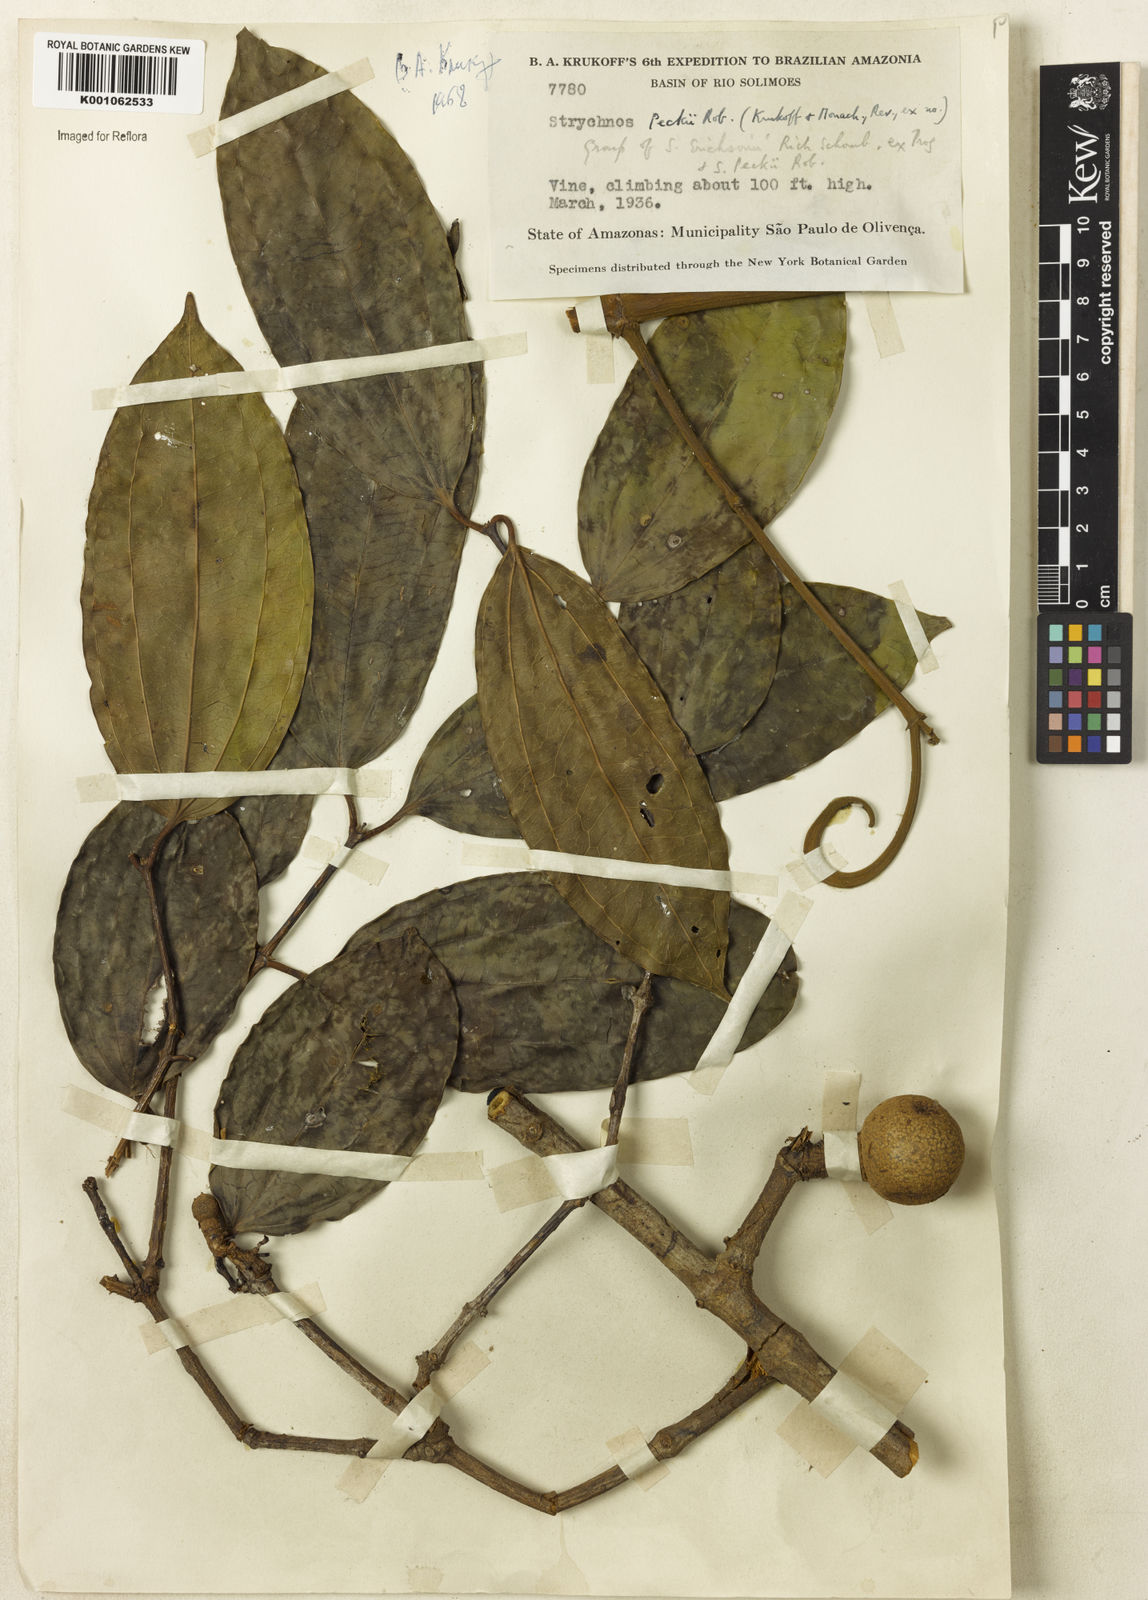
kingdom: Plantae
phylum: Tracheophyta
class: Magnoliopsida
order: Gentianales
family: Loganiaceae
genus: Strychnos
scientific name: Strychnos peckii
